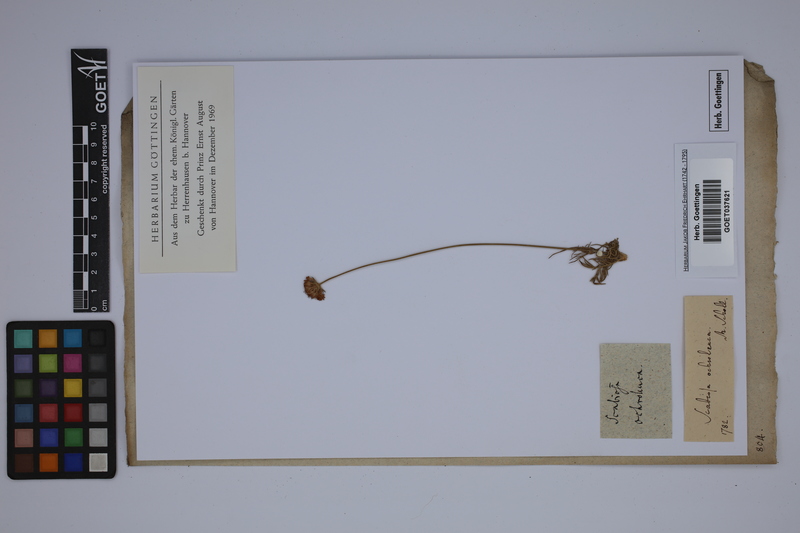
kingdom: Plantae
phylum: Tracheophyta
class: Magnoliopsida
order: Dipsacales
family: Caprifoliaceae
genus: Scabiosa
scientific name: Scabiosa austroafricana
